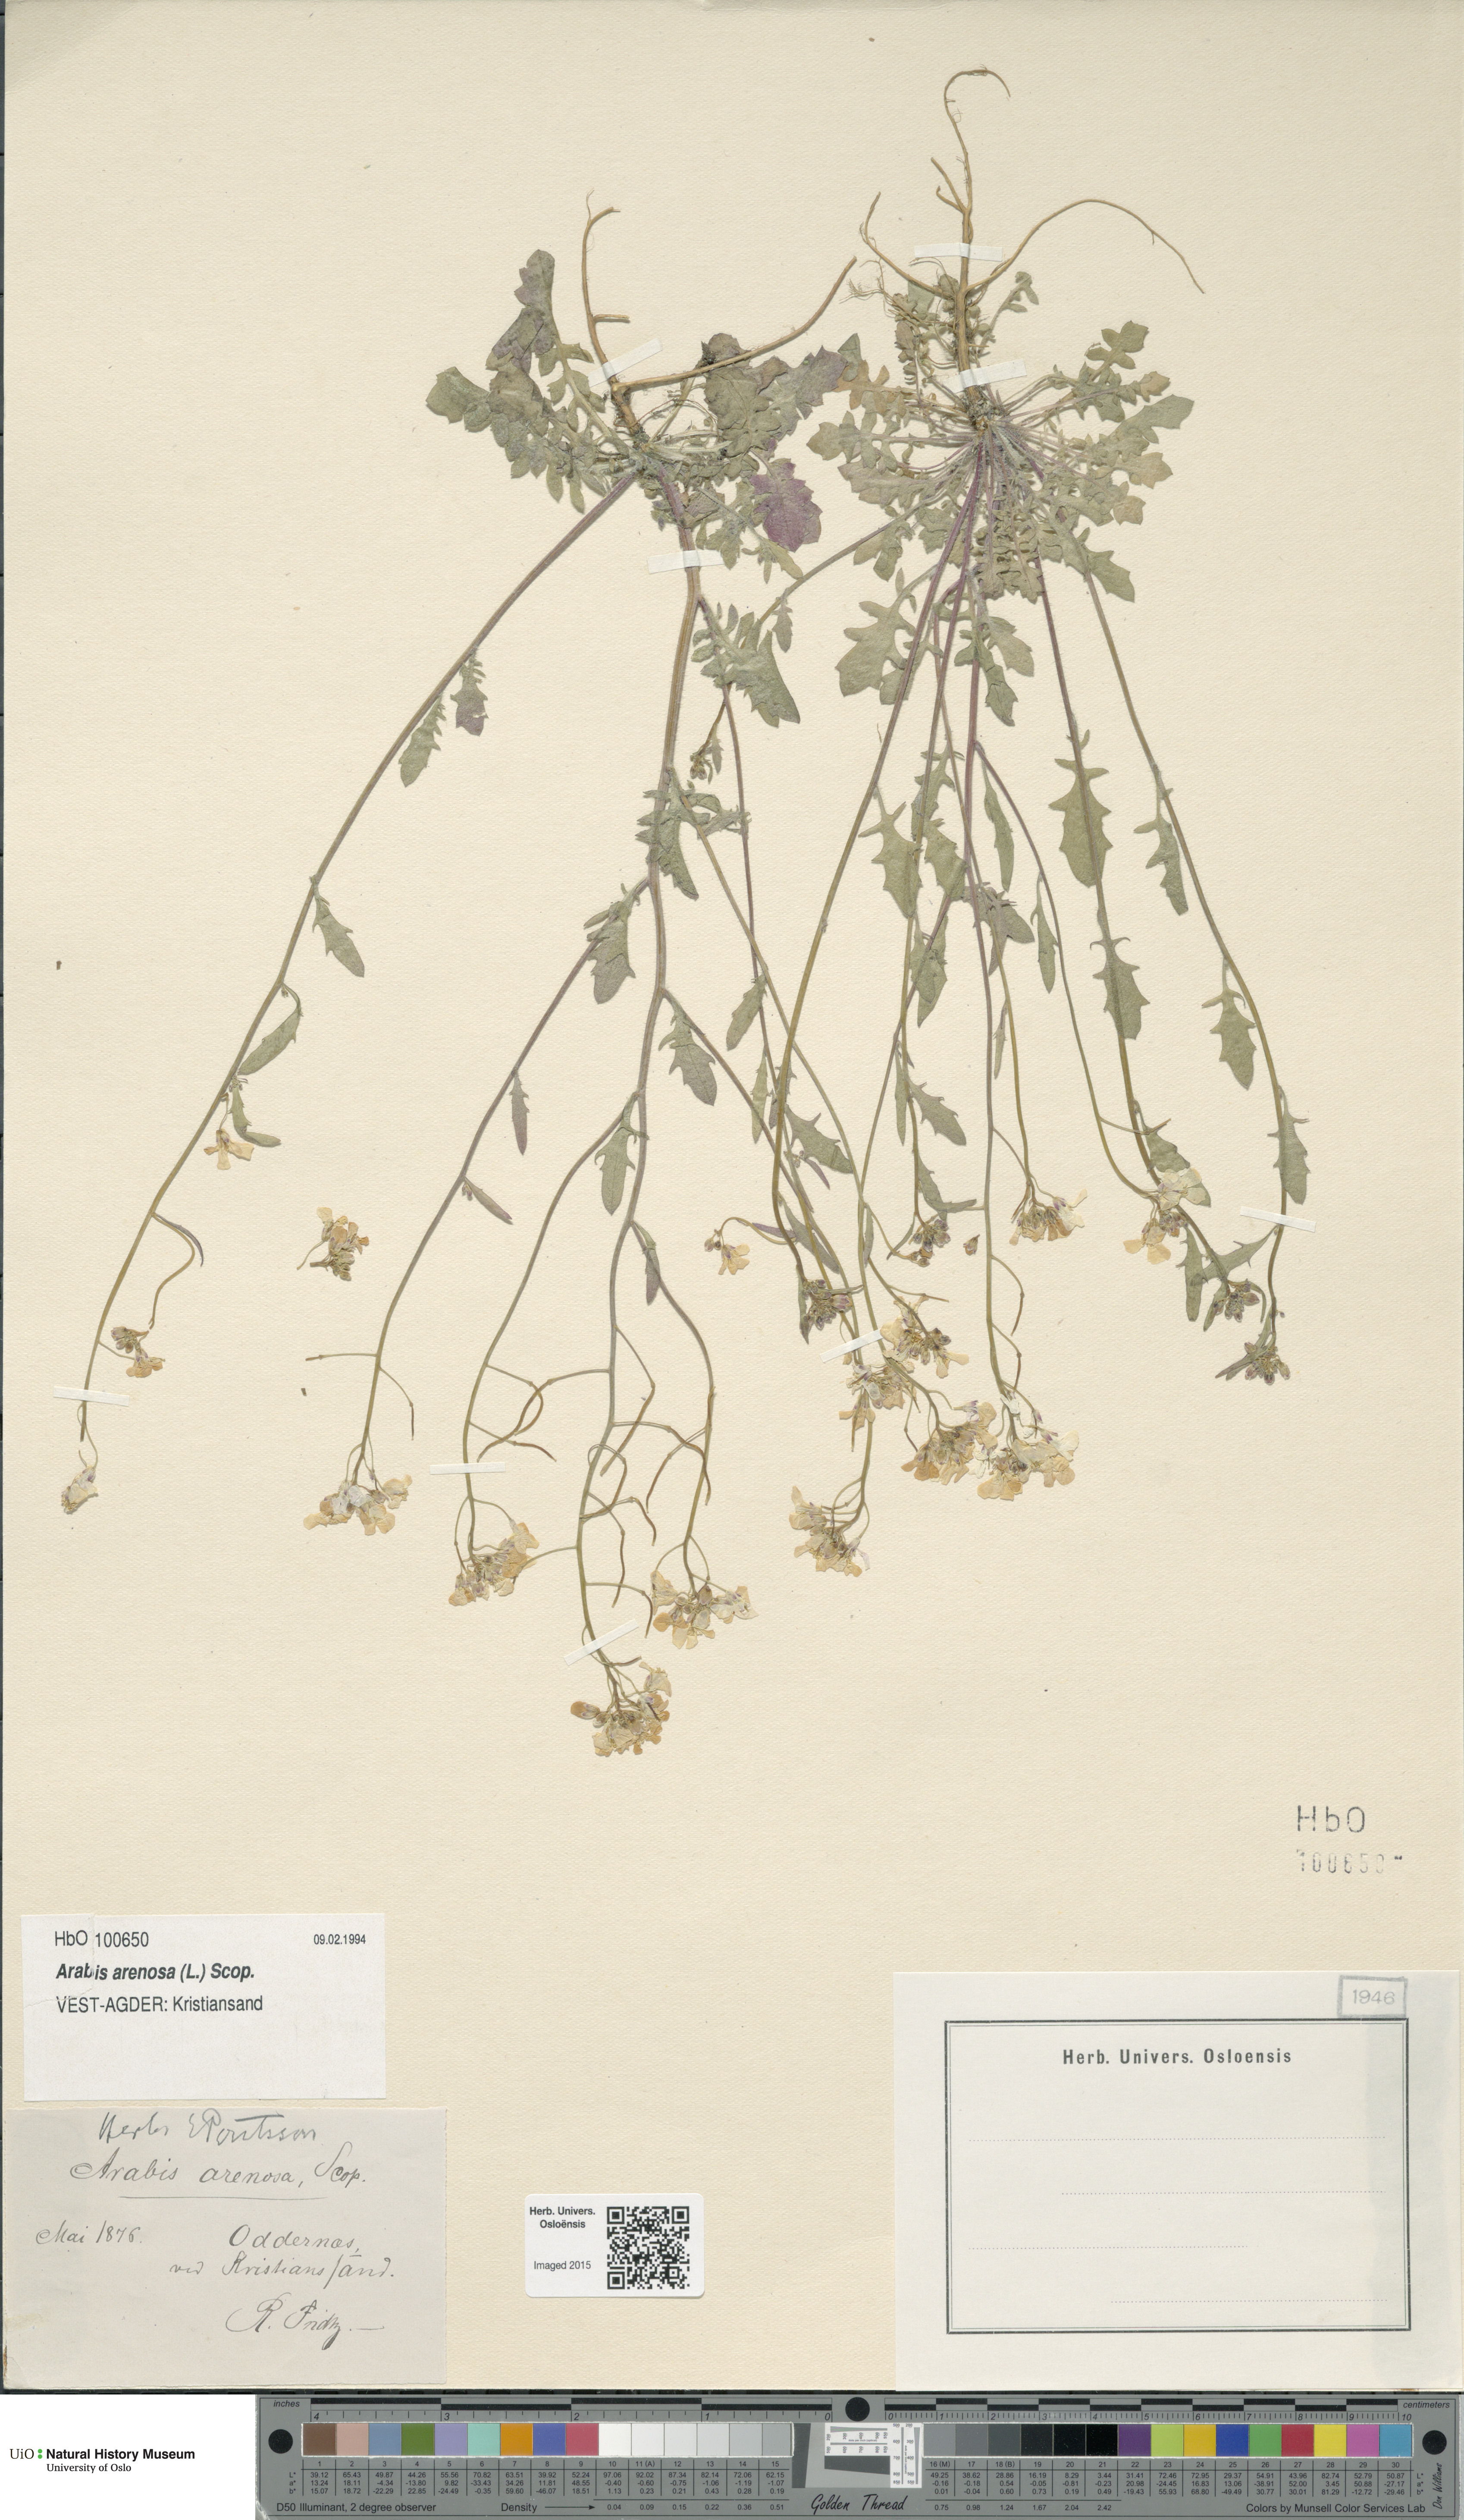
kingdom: Plantae
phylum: Tracheophyta
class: Magnoliopsida
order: Brassicales
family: Brassicaceae
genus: Arabidopsis
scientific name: Arabidopsis arenosa
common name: Sand rock-cress
